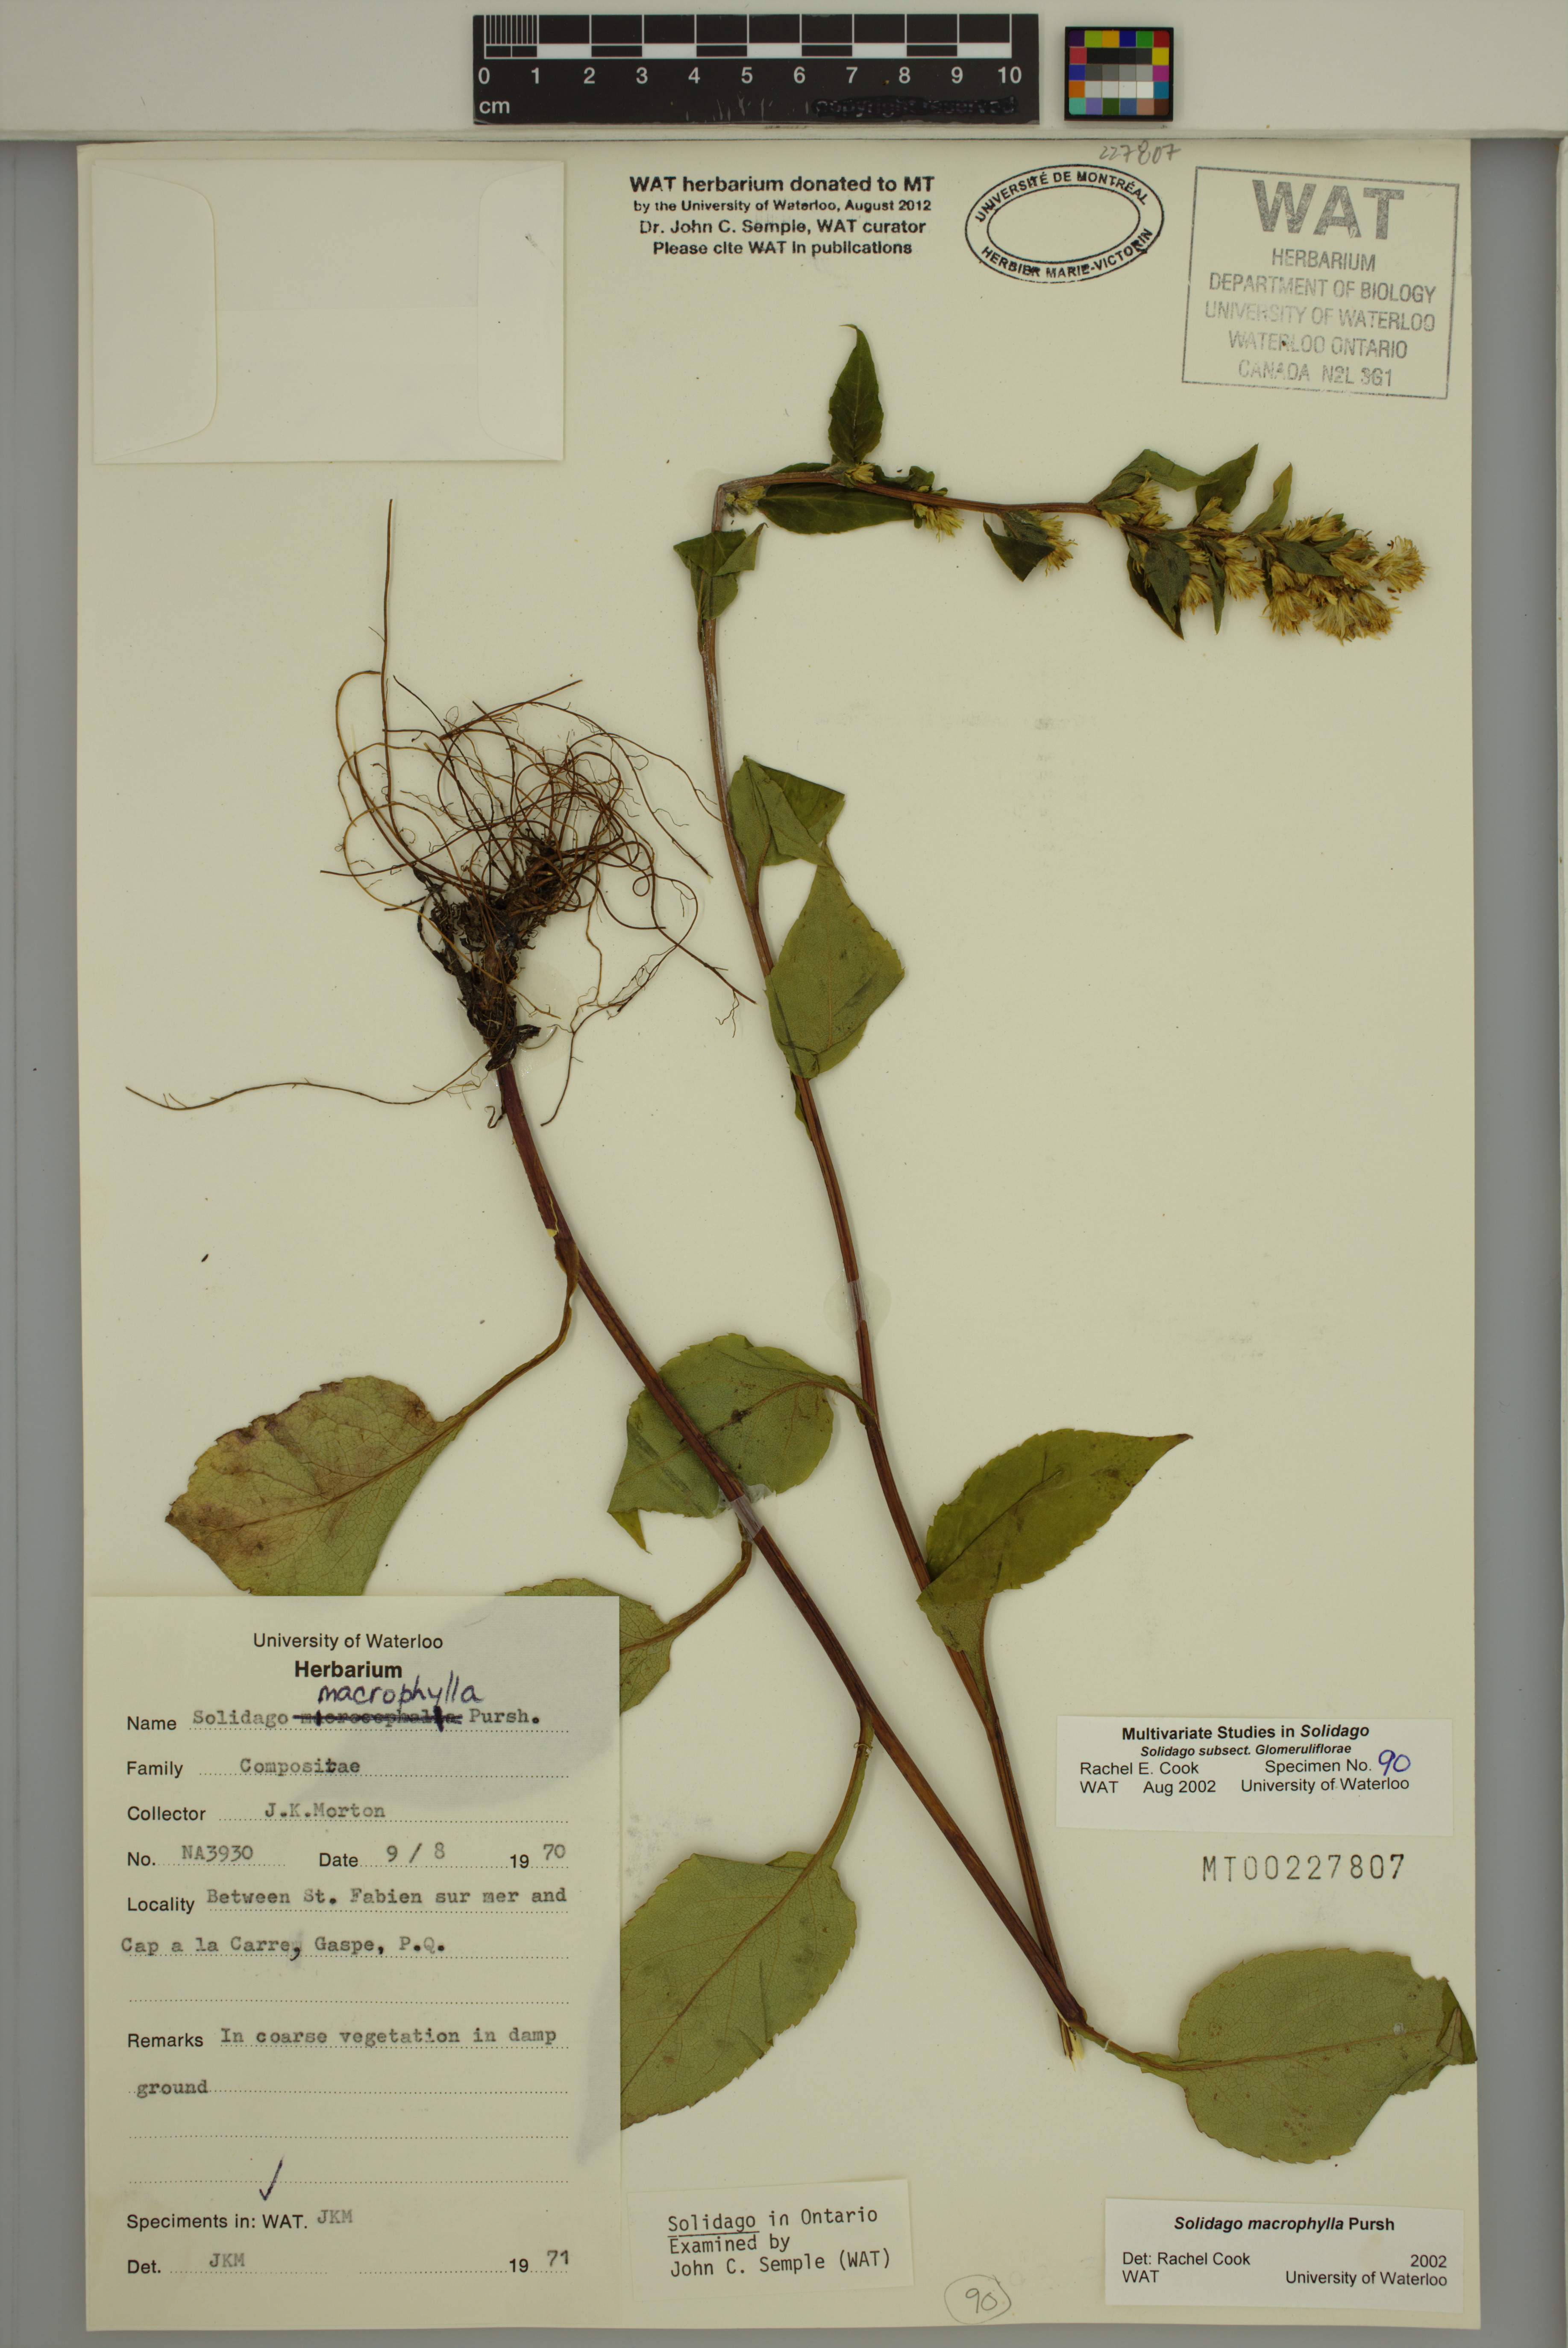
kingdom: Plantae
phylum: Tracheophyta
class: Magnoliopsida
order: Asterales
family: Asteraceae
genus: Solidago
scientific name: Solidago macrophylla
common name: Large-leaved goldenrod
